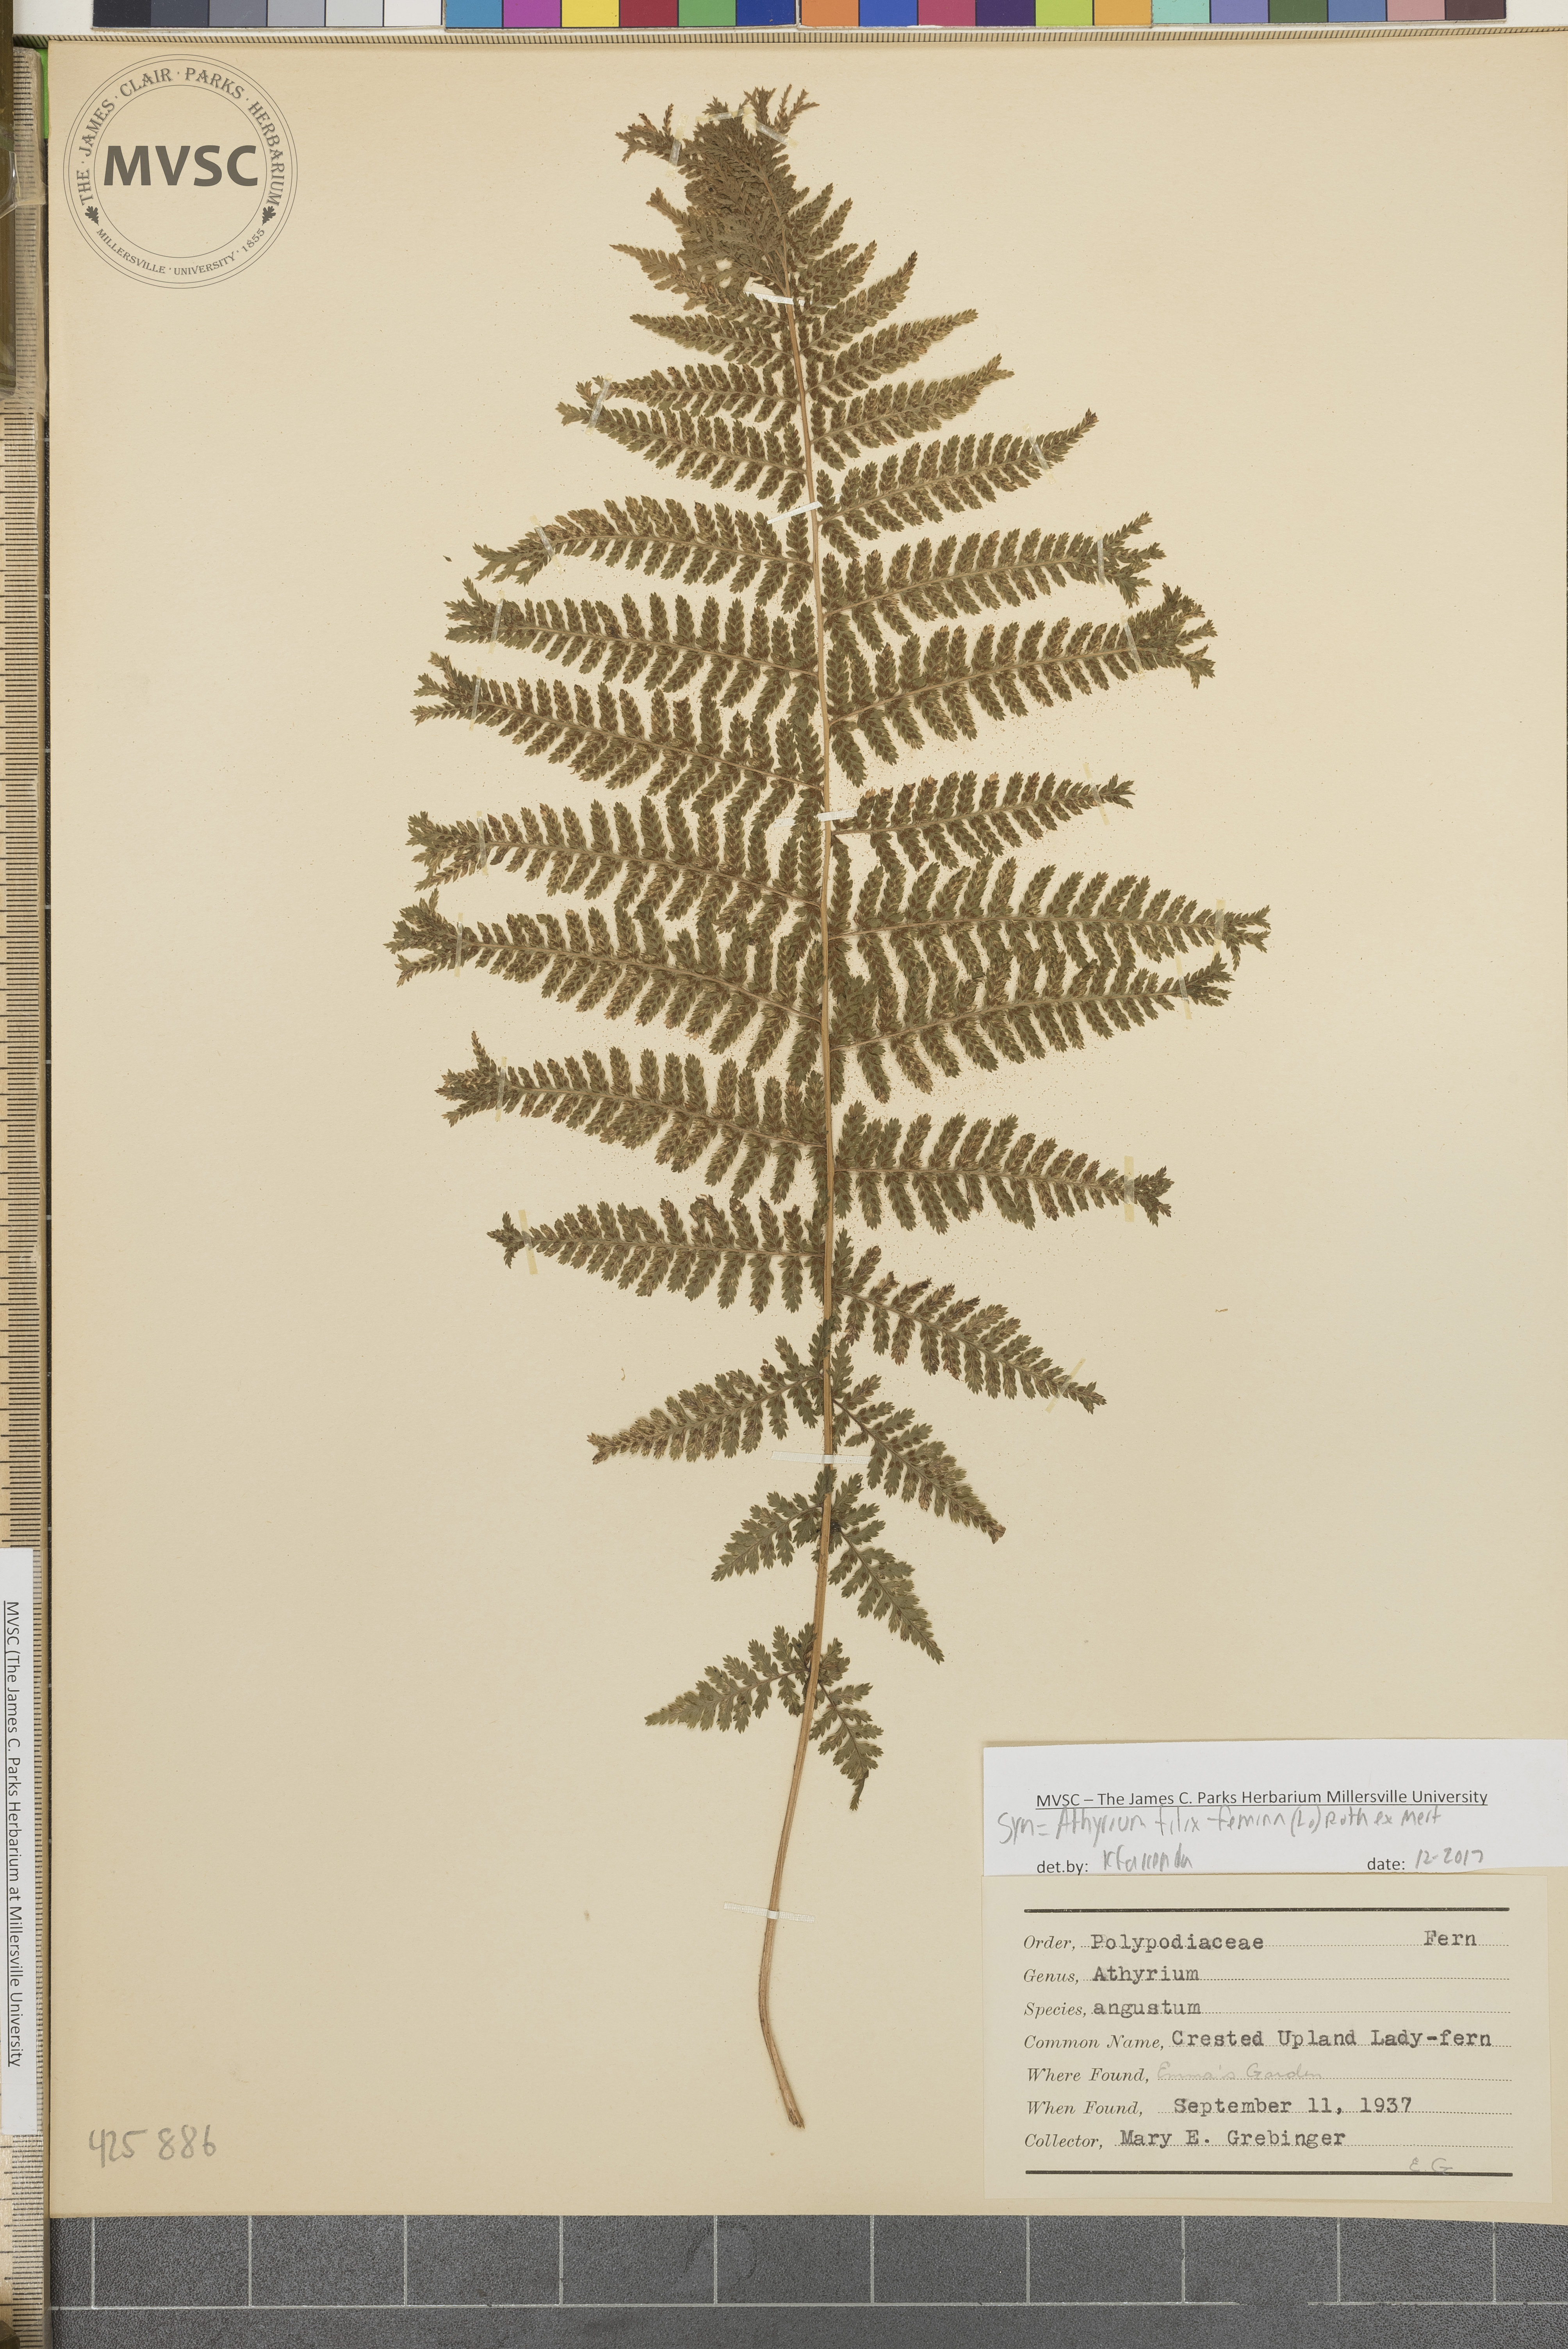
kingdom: Plantae
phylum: Tracheophyta
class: Polypodiopsida
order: Polypodiales
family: Athyriaceae
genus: Athyrium
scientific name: Athyrium filix-femina
